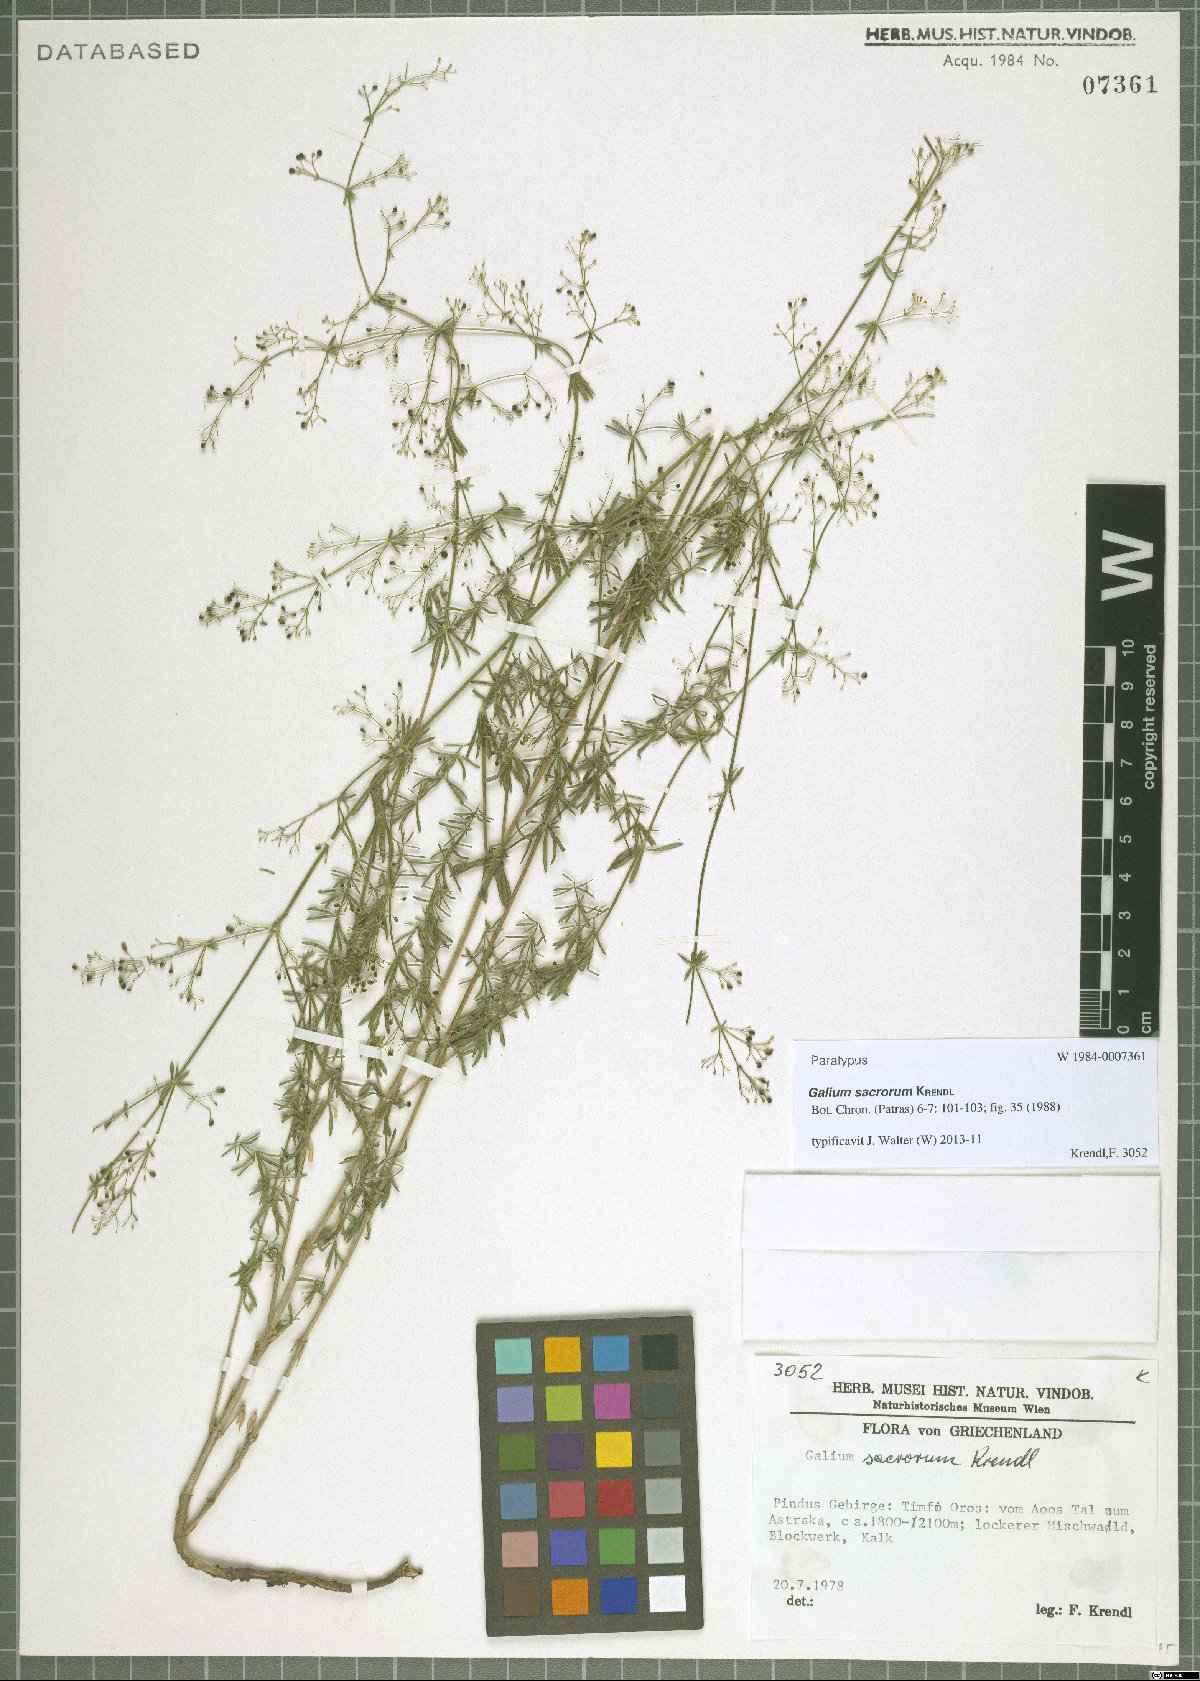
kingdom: Plantae
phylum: Tracheophyta
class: Magnoliopsida
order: Gentianales
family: Rubiaceae
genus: Galium
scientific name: Galium monasterium
